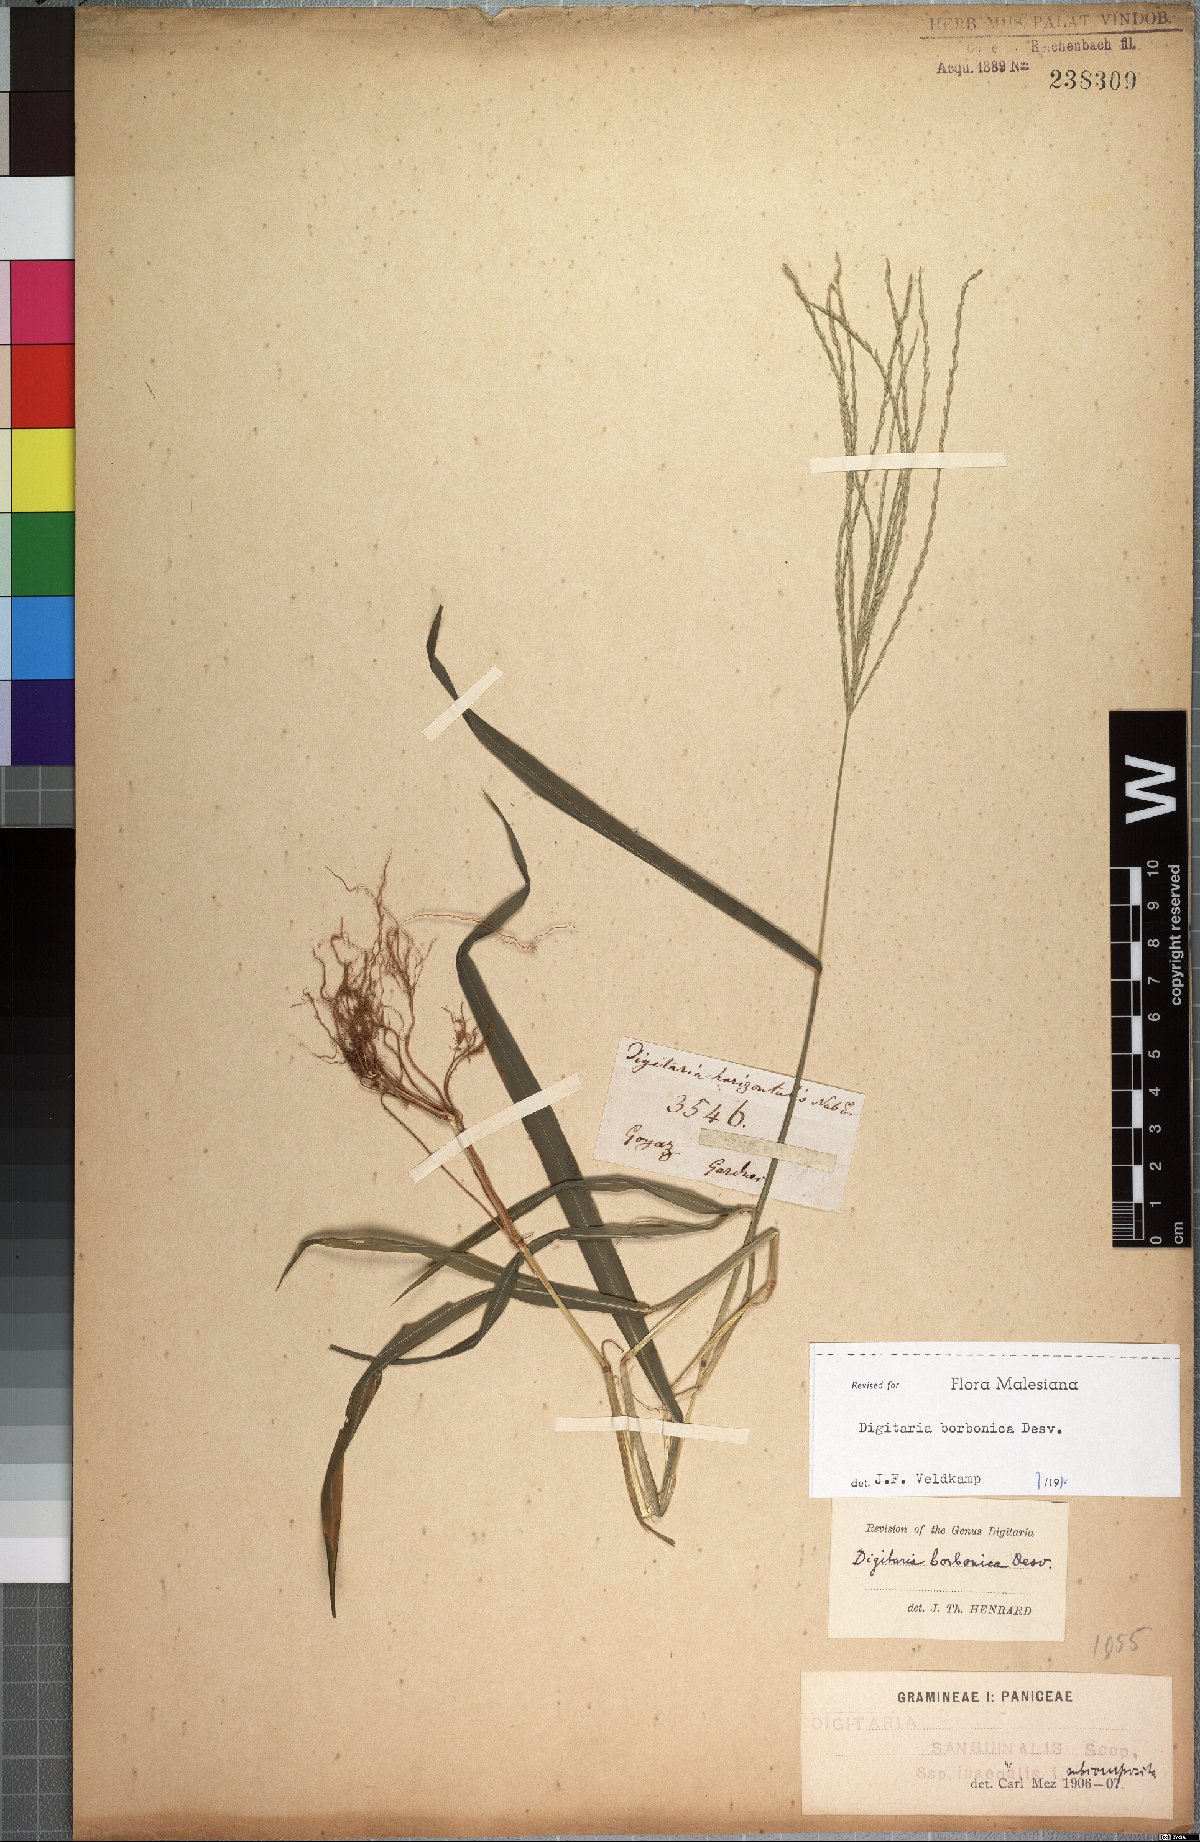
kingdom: Plantae
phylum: Tracheophyta
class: Liliopsida
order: Poales
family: Poaceae
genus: Digitaria
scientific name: Digitaria nuda
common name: Naked crabgrass
